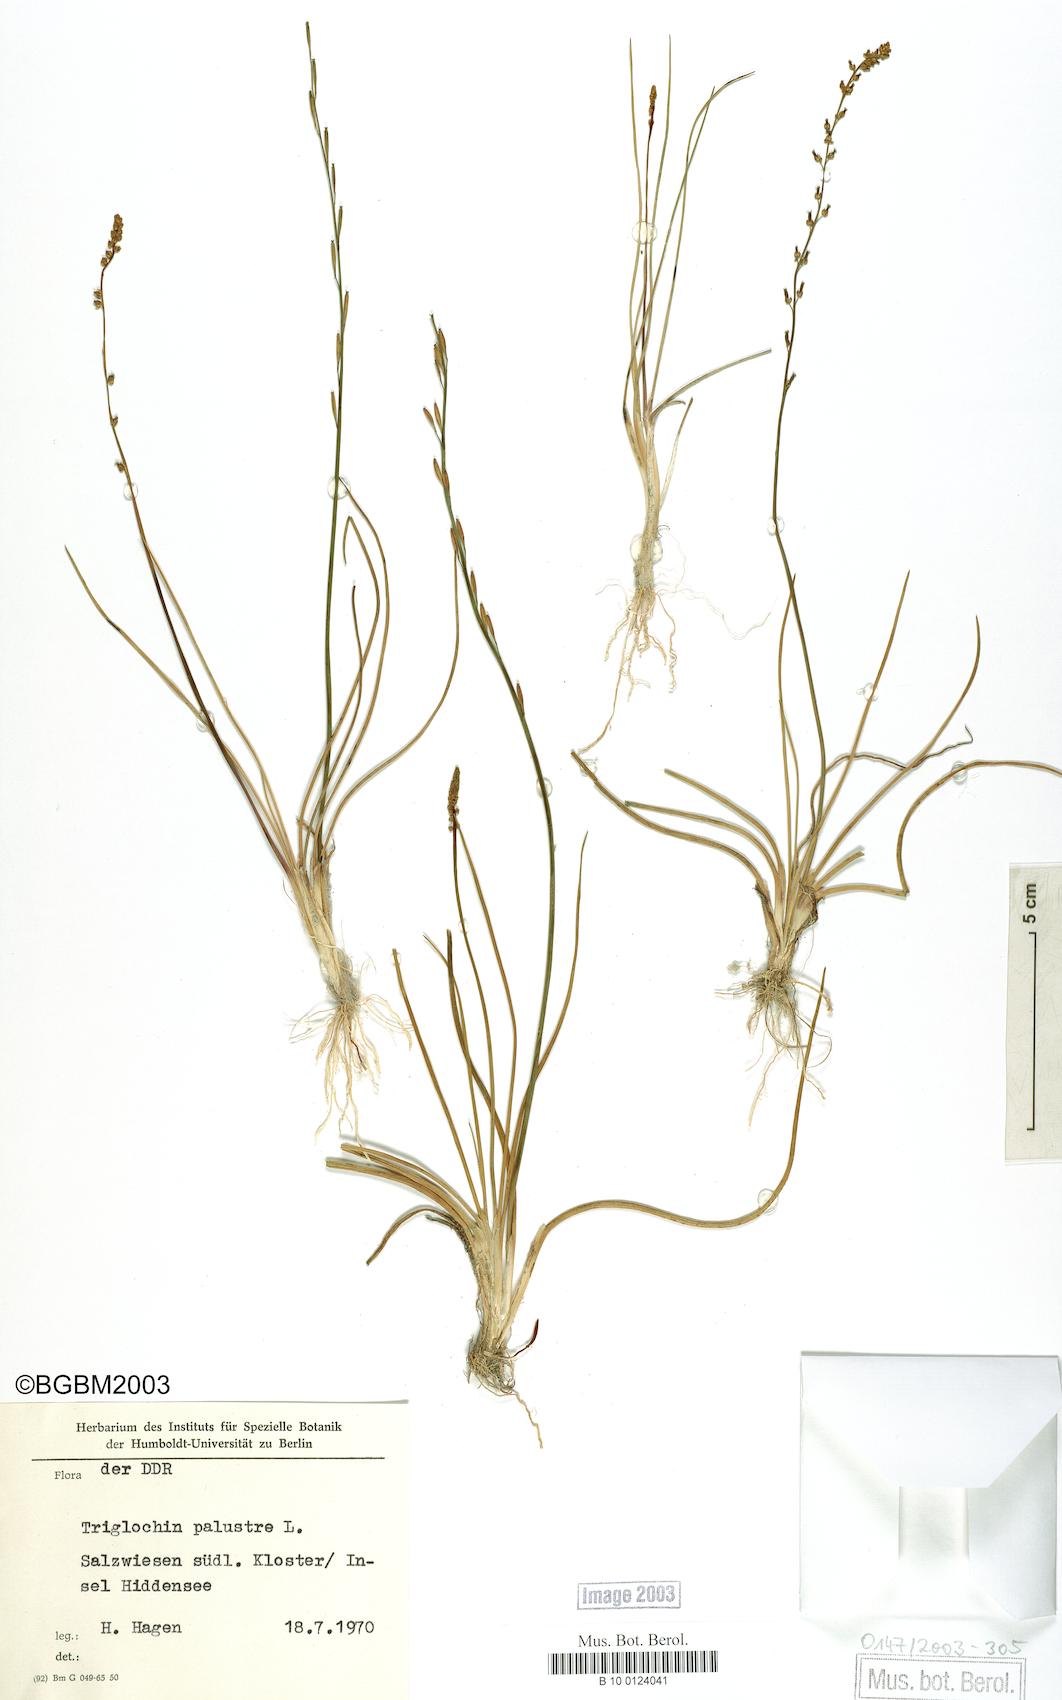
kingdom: Plantae
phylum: Tracheophyta
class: Liliopsida
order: Alismatales
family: Juncaginaceae
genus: Triglochin
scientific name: Triglochin palustris
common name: Marsh arrowgrass
